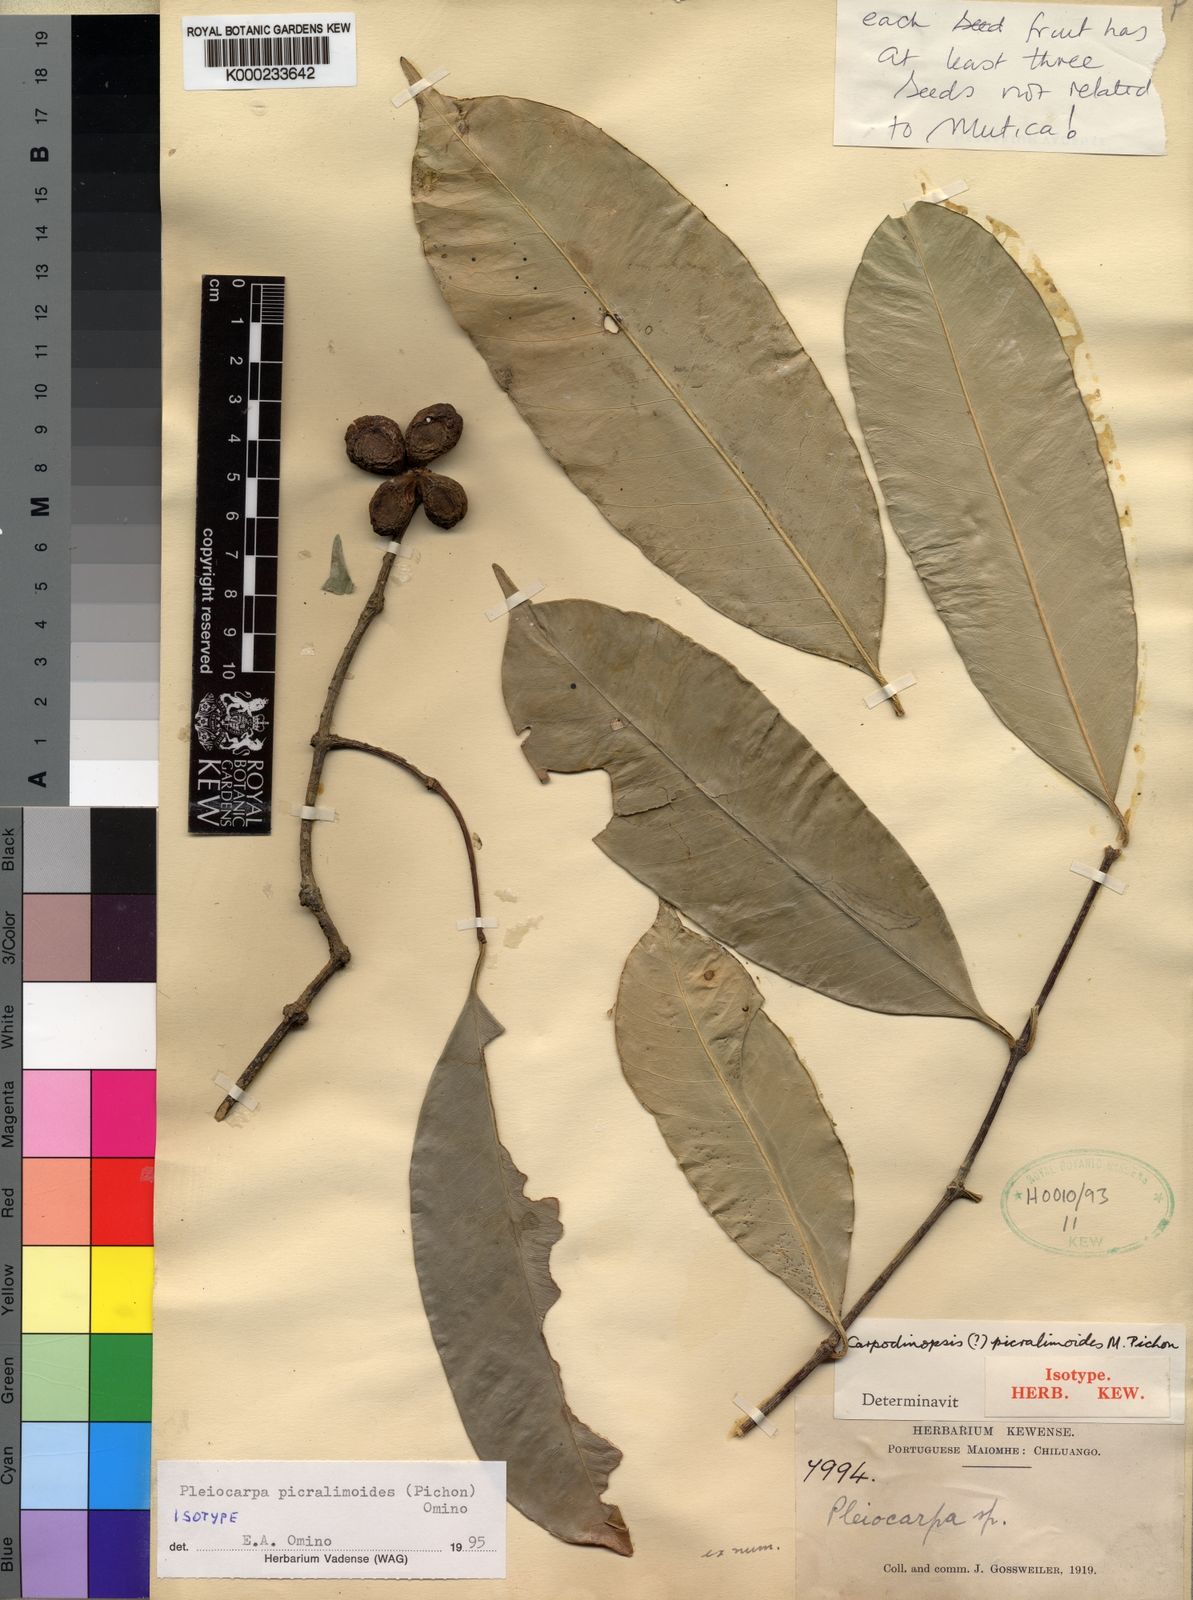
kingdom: Plantae
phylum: Tracheophyta
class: Magnoliopsida
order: Gentianales
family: Apocynaceae
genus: Pleiocarpa
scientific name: Pleiocarpa picralimoides
